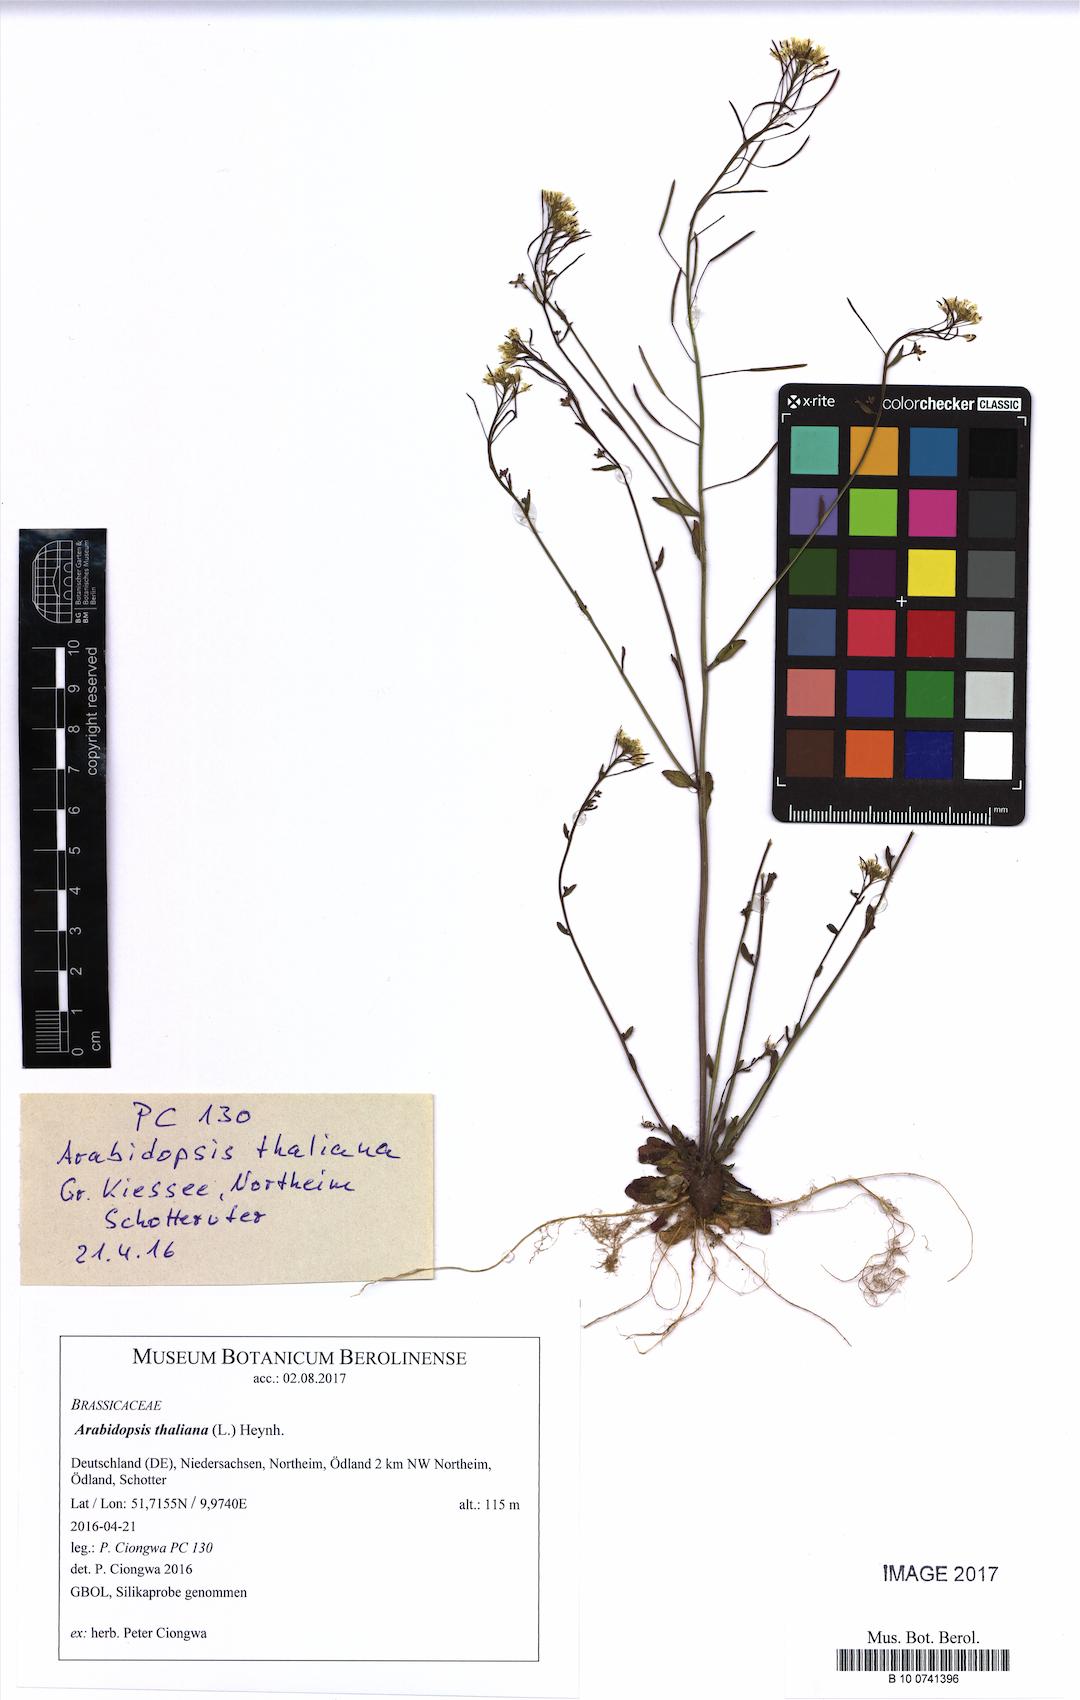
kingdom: Plantae
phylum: Tracheophyta
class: Magnoliopsida
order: Brassicales
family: Brassicaceae
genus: Arabidopsis
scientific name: Arabidopsis thaliana
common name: Thale cress
